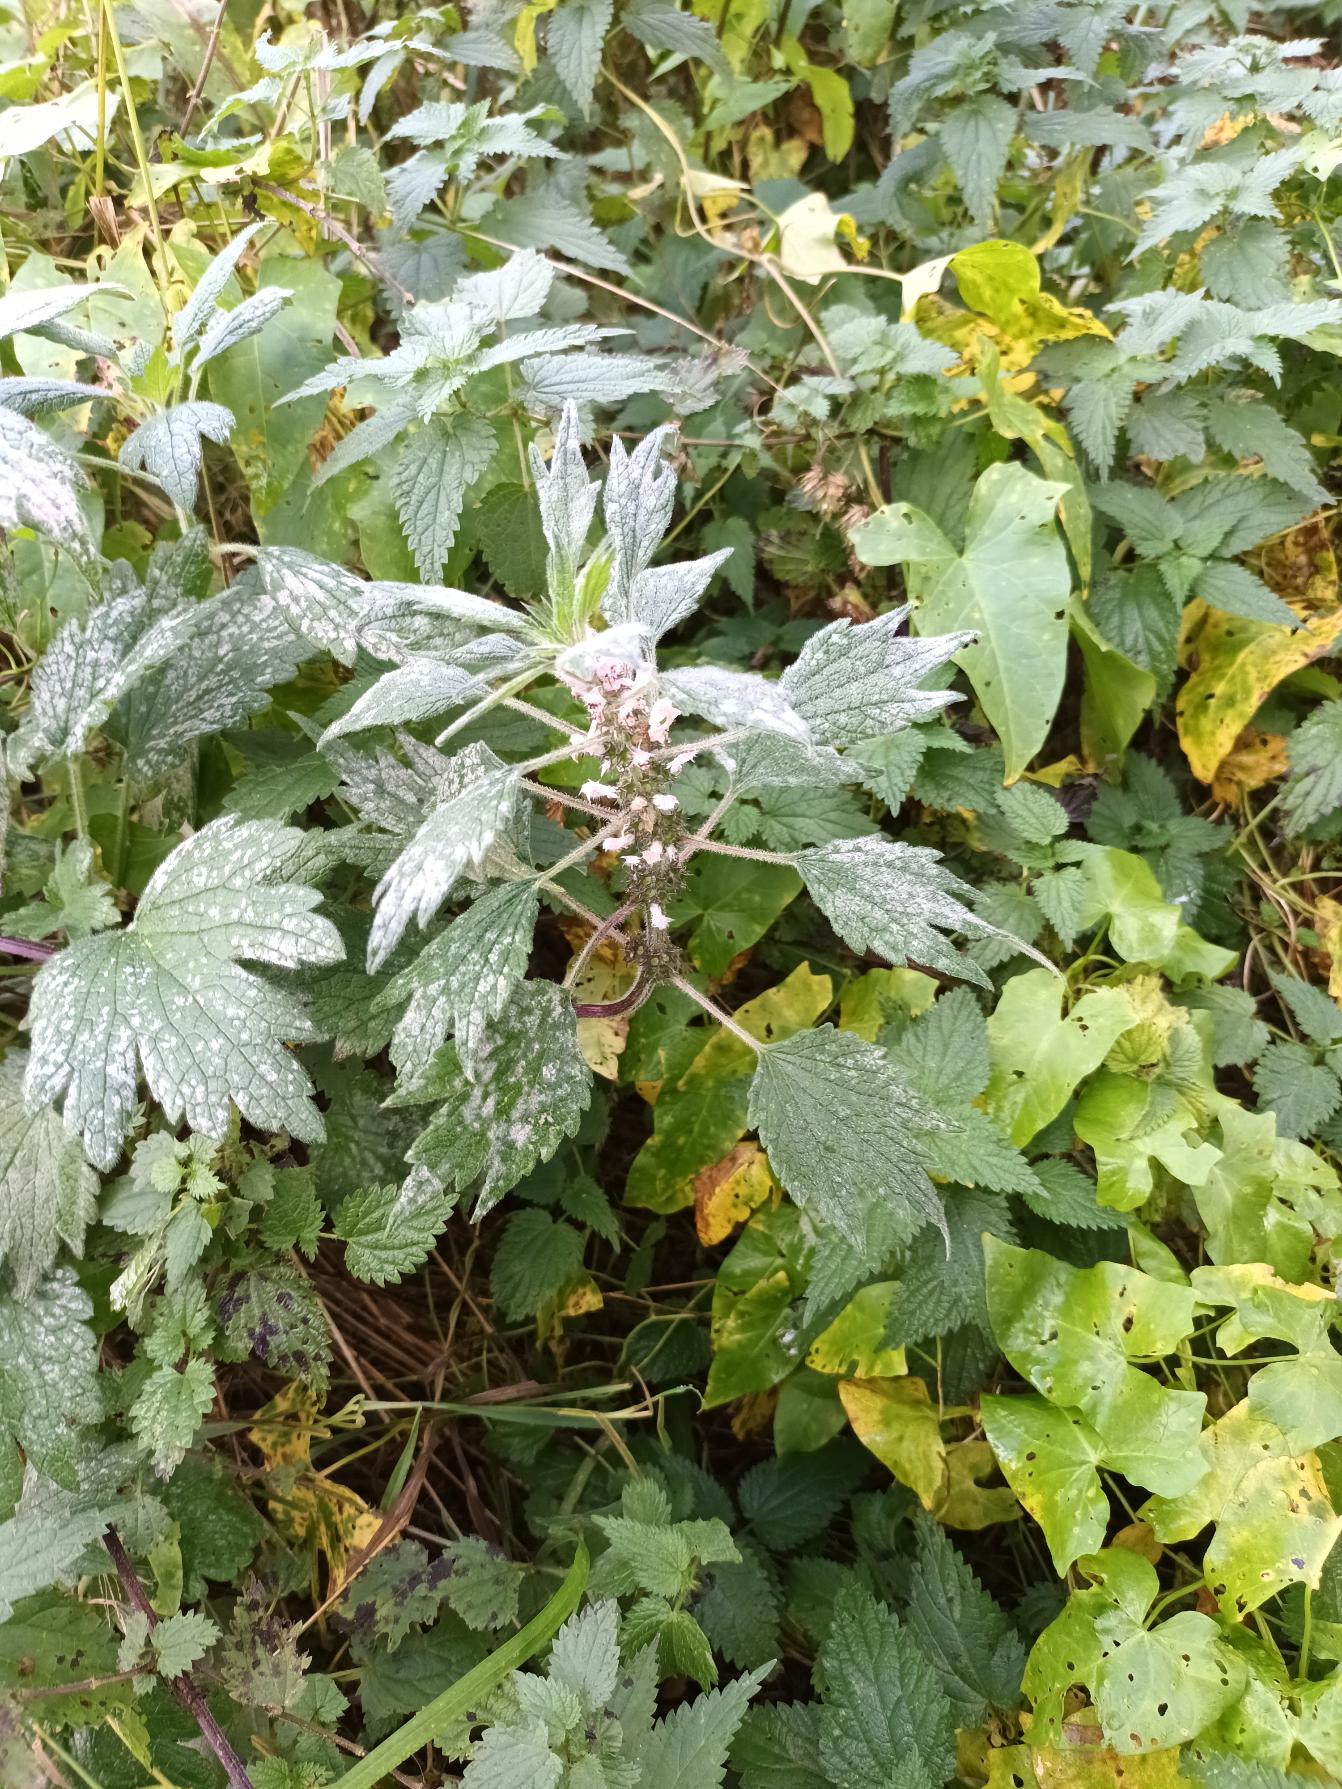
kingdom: Plantae
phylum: Tracheophyta
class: Magnoliopsida
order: Lamiales
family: Lamiaceae
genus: Leonurus
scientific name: Leonurus cardiaca
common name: Hjertespand
